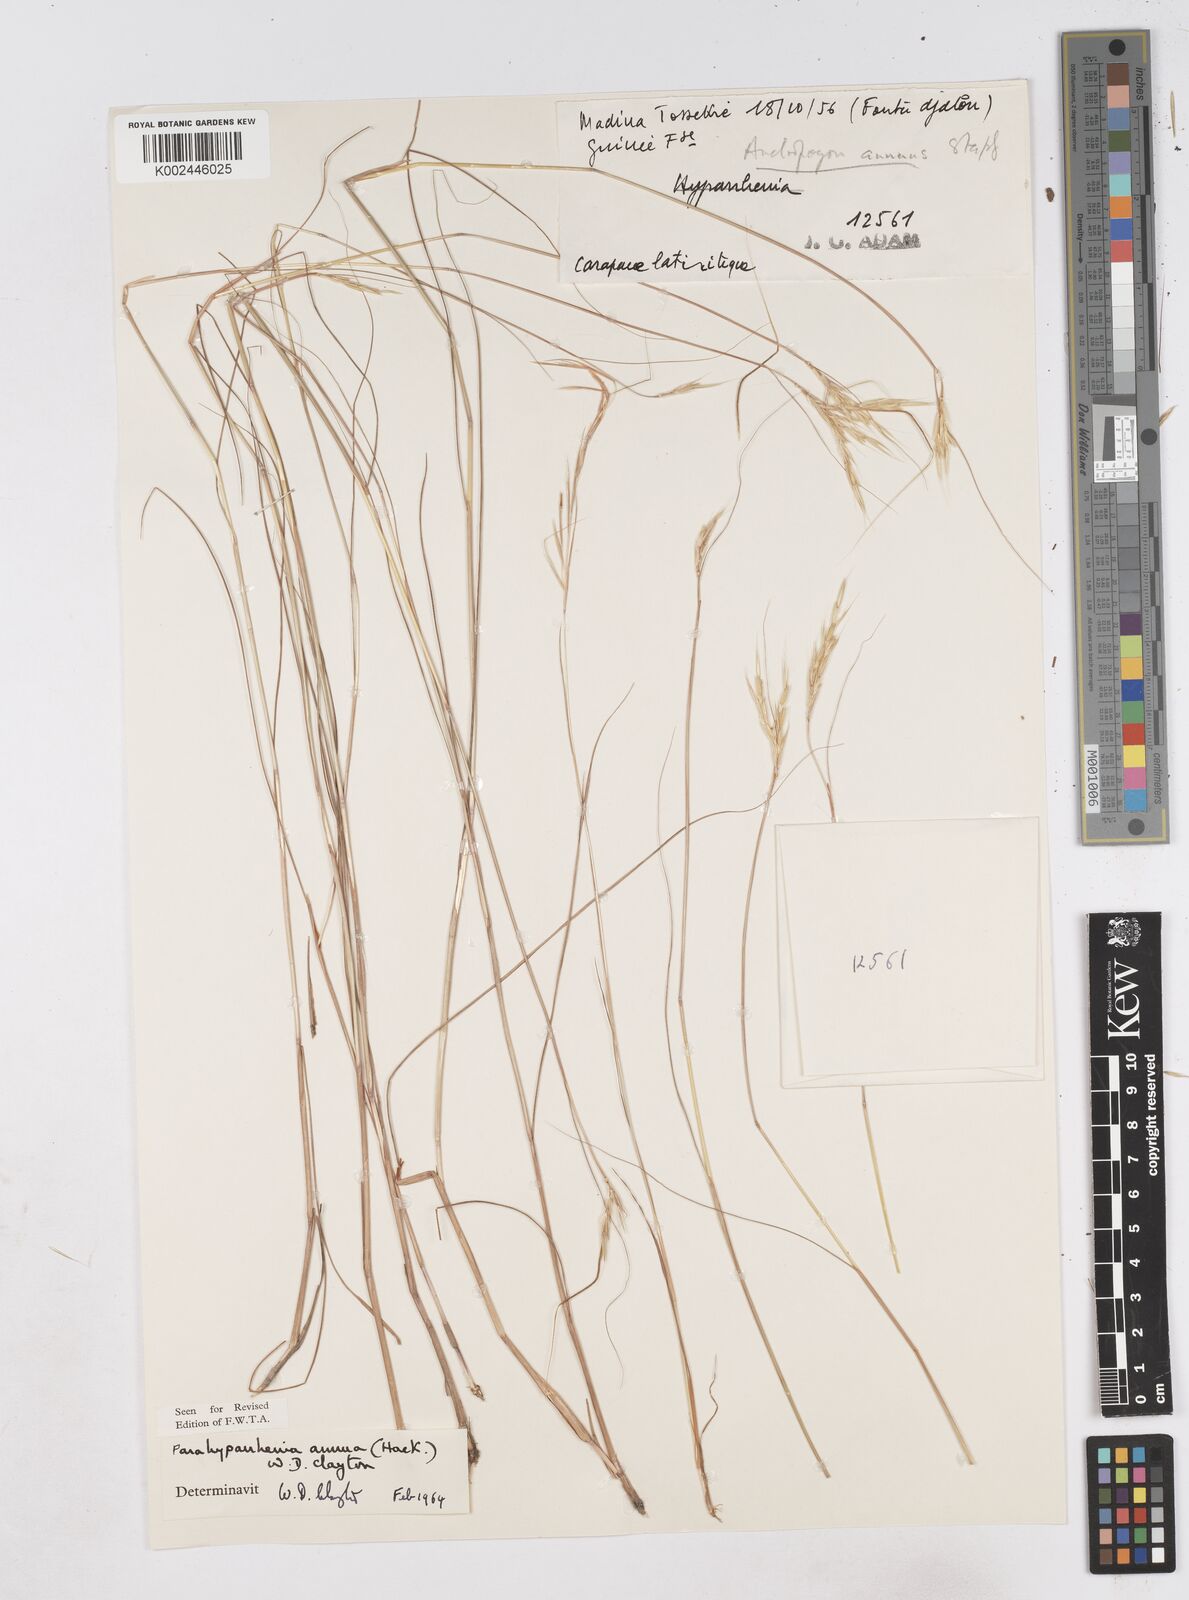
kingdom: Plantae
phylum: Tracheophyta
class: Liliopsida
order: Poales
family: Poaceae
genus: Parahyparrhenia
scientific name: Parahyparrhenia annua
